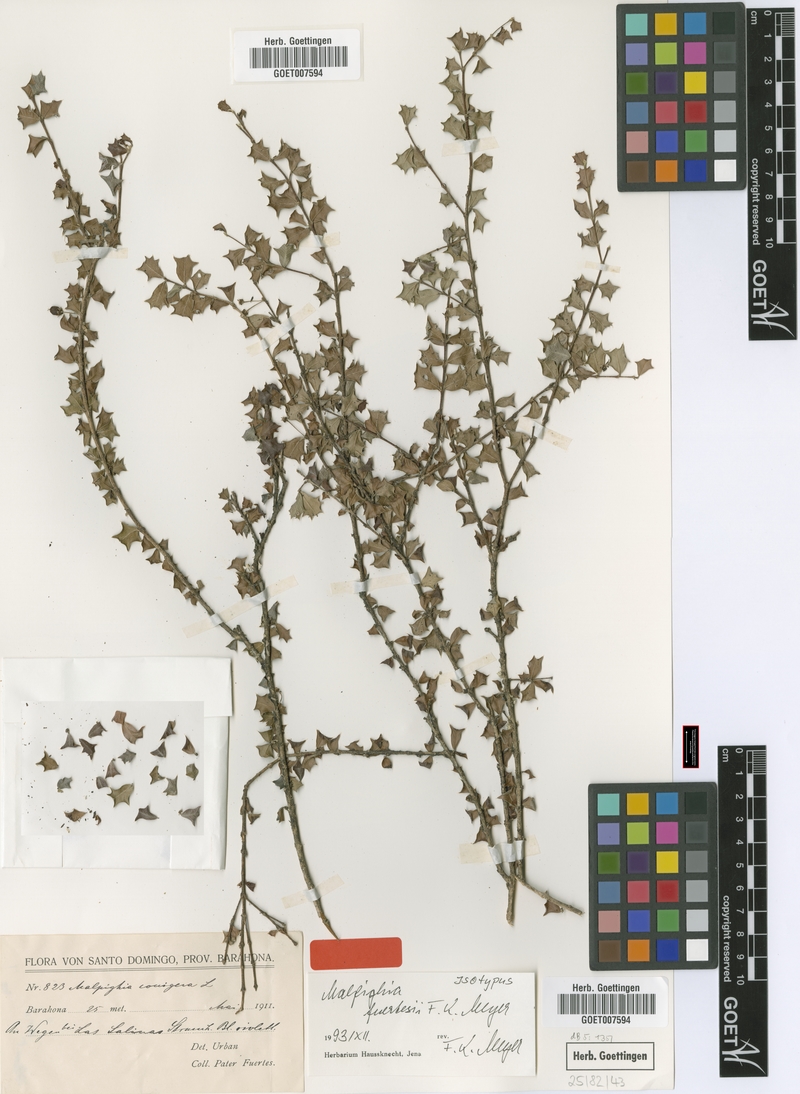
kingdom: Plantae
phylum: Tracheophyta
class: Magnoliopsida
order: Malpighiales
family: Malpighiaceae
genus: Malpighia
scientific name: Malpighia coccigera
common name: Singapore holly
